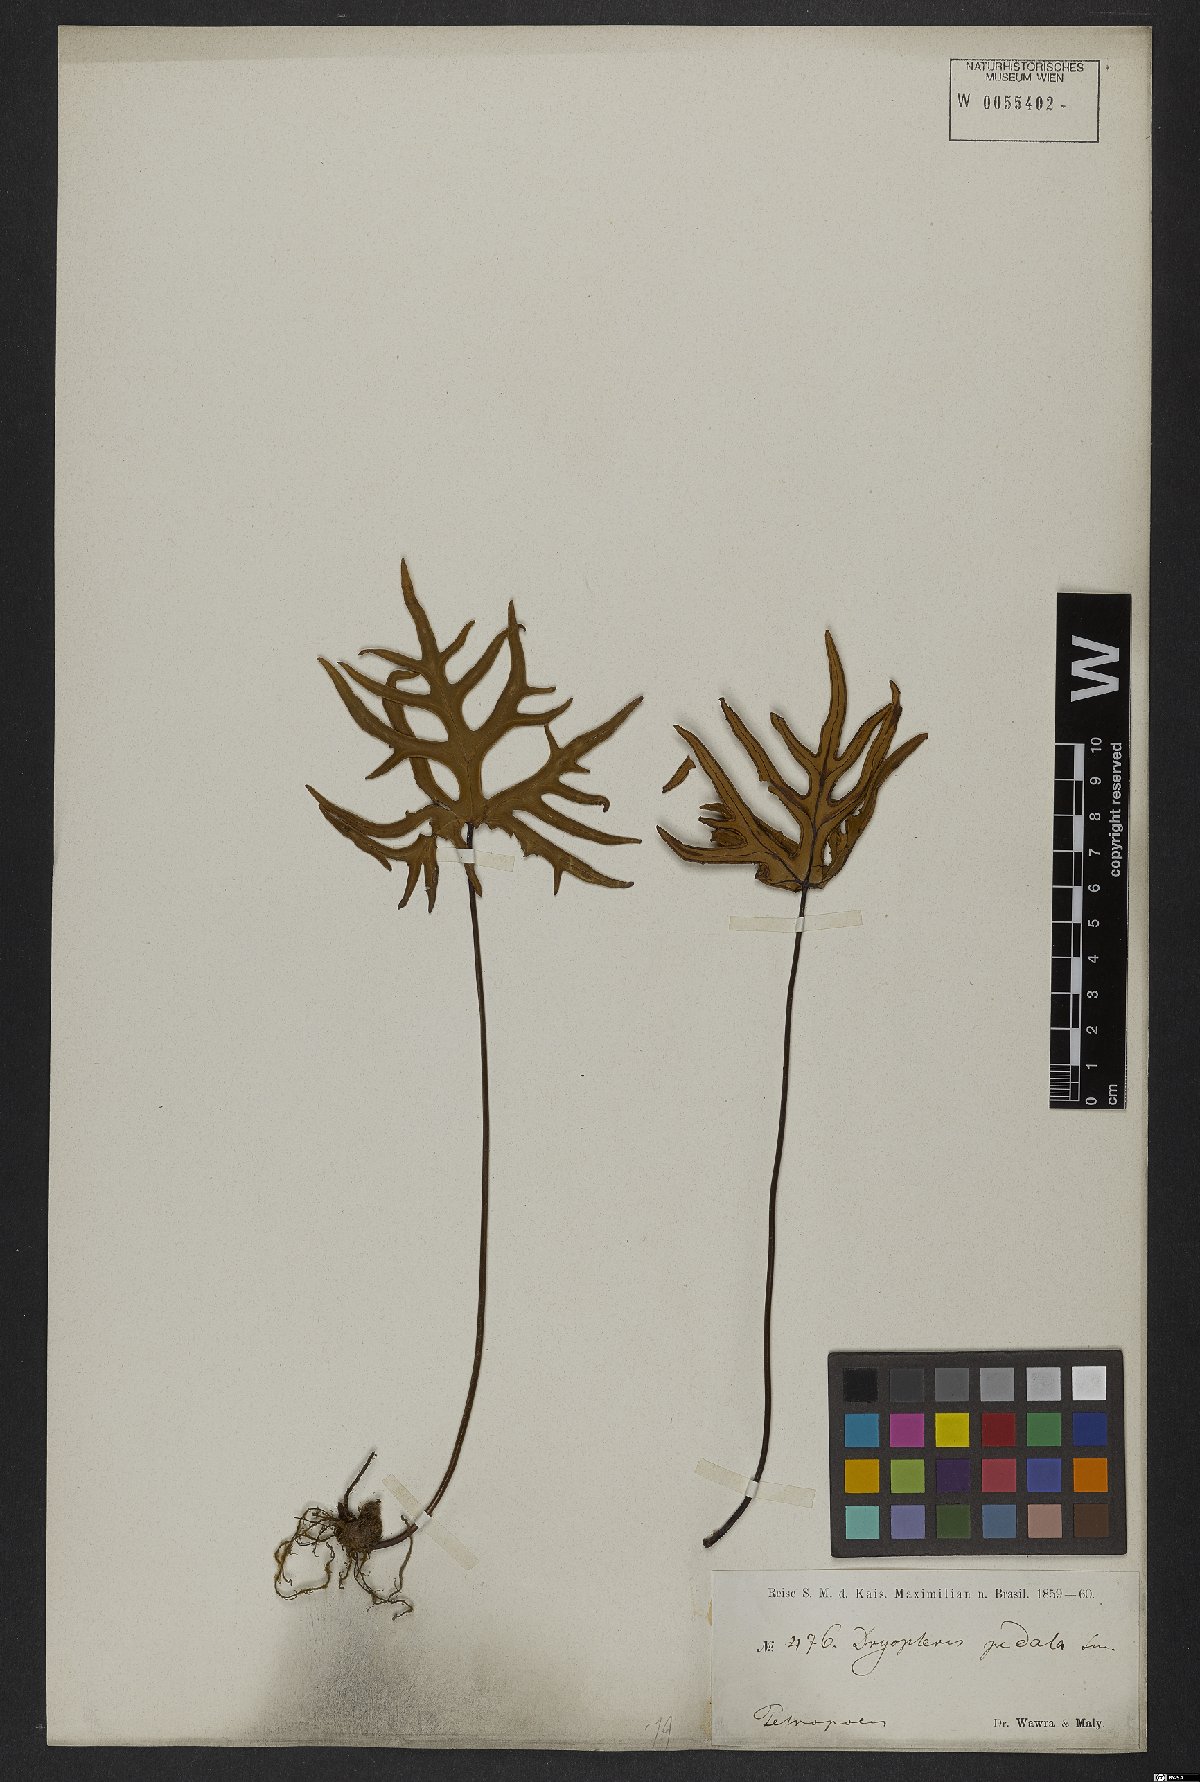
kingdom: Plantae
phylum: Tracheophyta
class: Polypodiopsida
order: Polypodiales
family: Pteridaceae
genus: Doryopteris
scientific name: Doryopteris pedata
